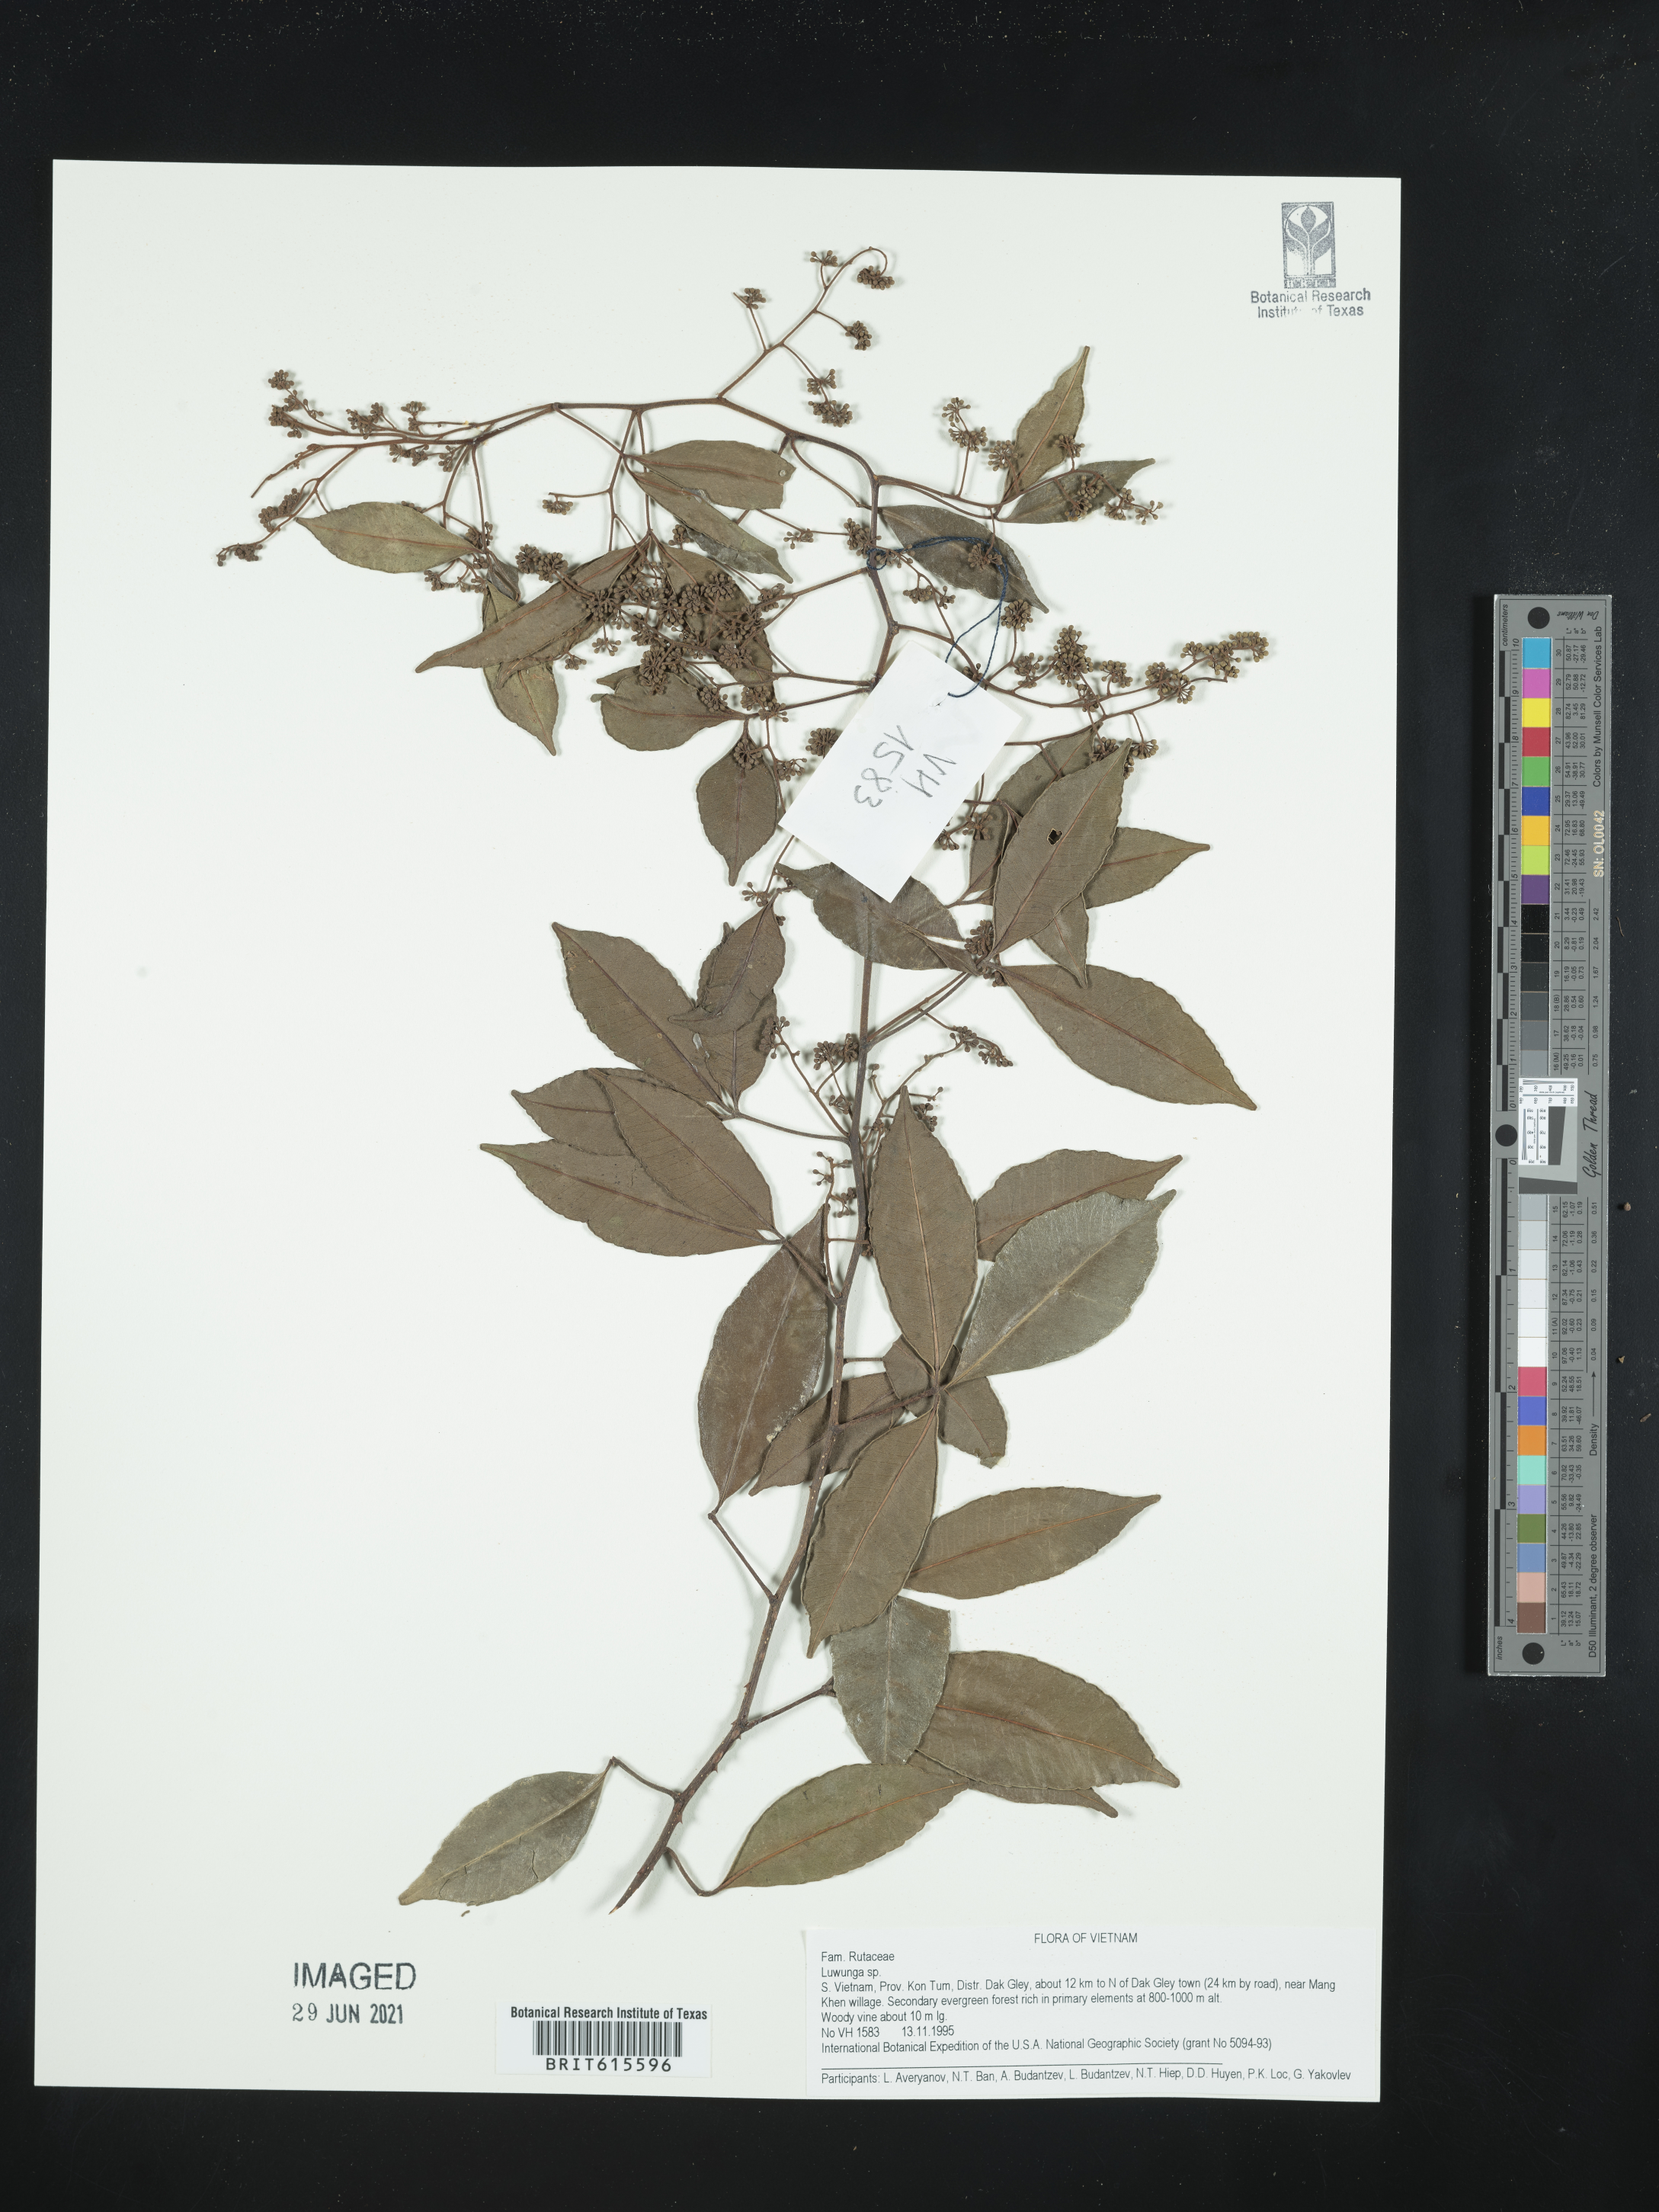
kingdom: Plantae
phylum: Tracheophyta
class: Magnoliopsida
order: Sapindales
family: Rutaceae
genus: Luvunga
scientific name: Luvunga
